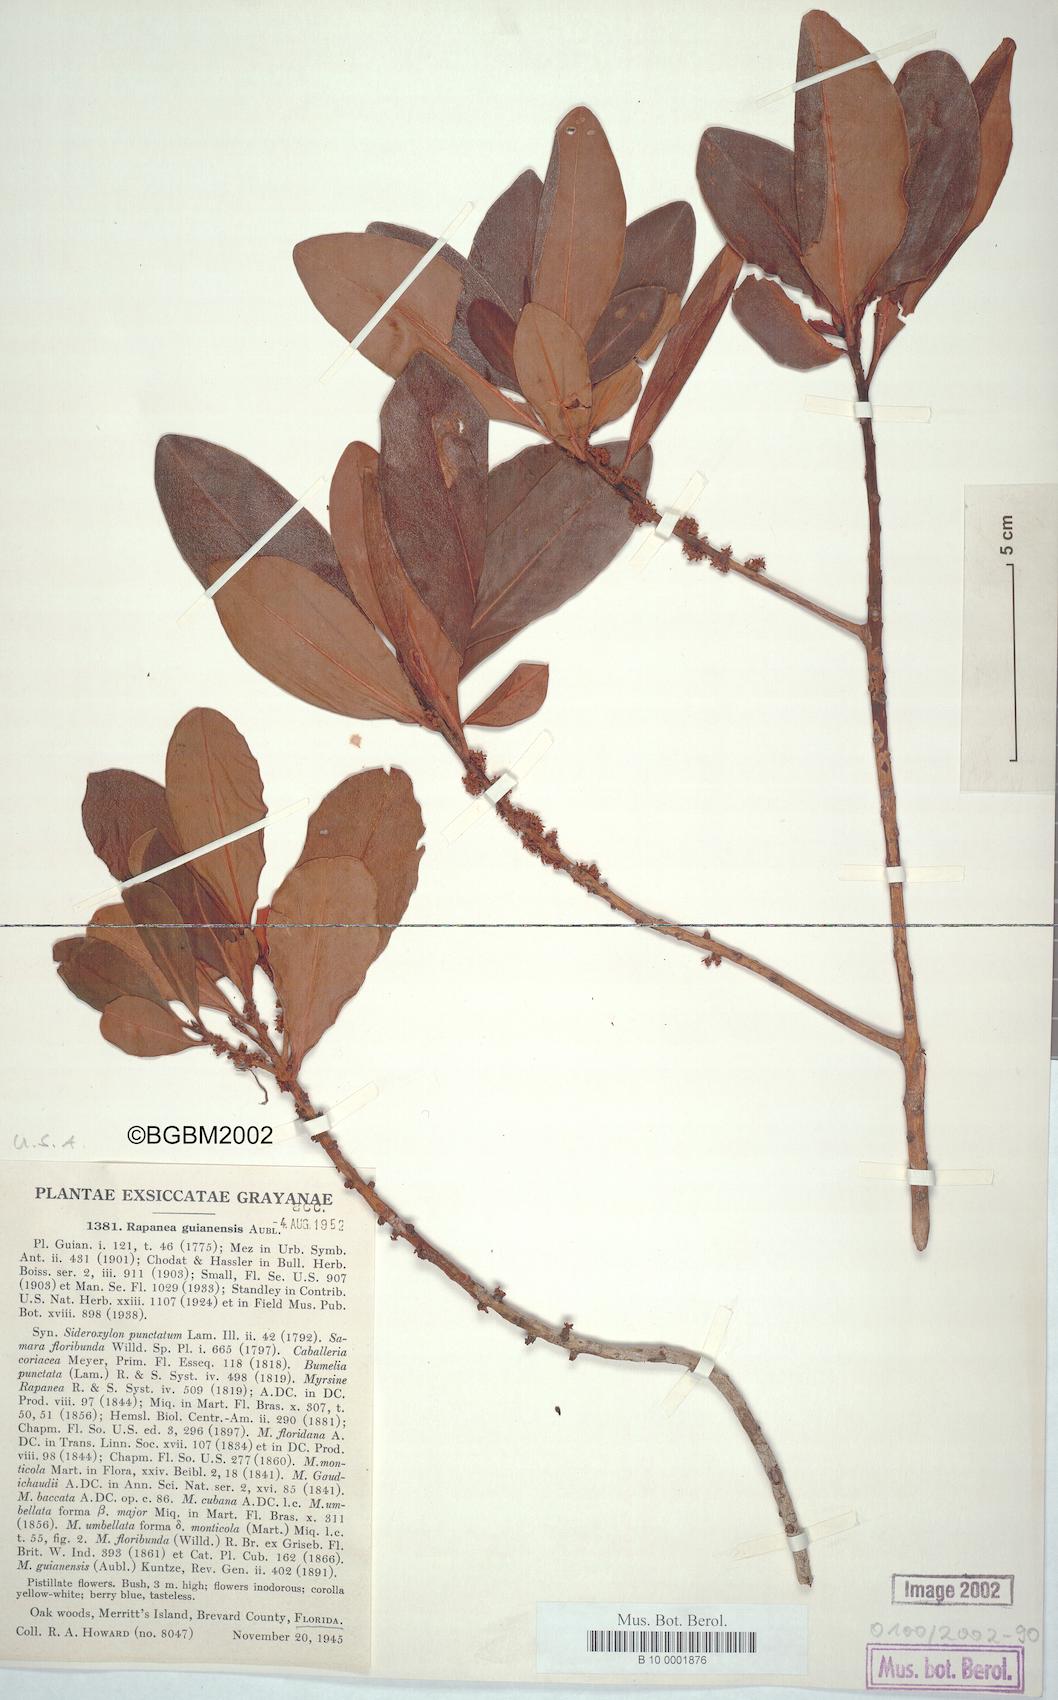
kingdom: Plantae
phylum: Tracheophyta
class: Magnoliopsida
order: Ericales
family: Primulaceae
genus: Myrsine
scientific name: Myrsine guianensis
